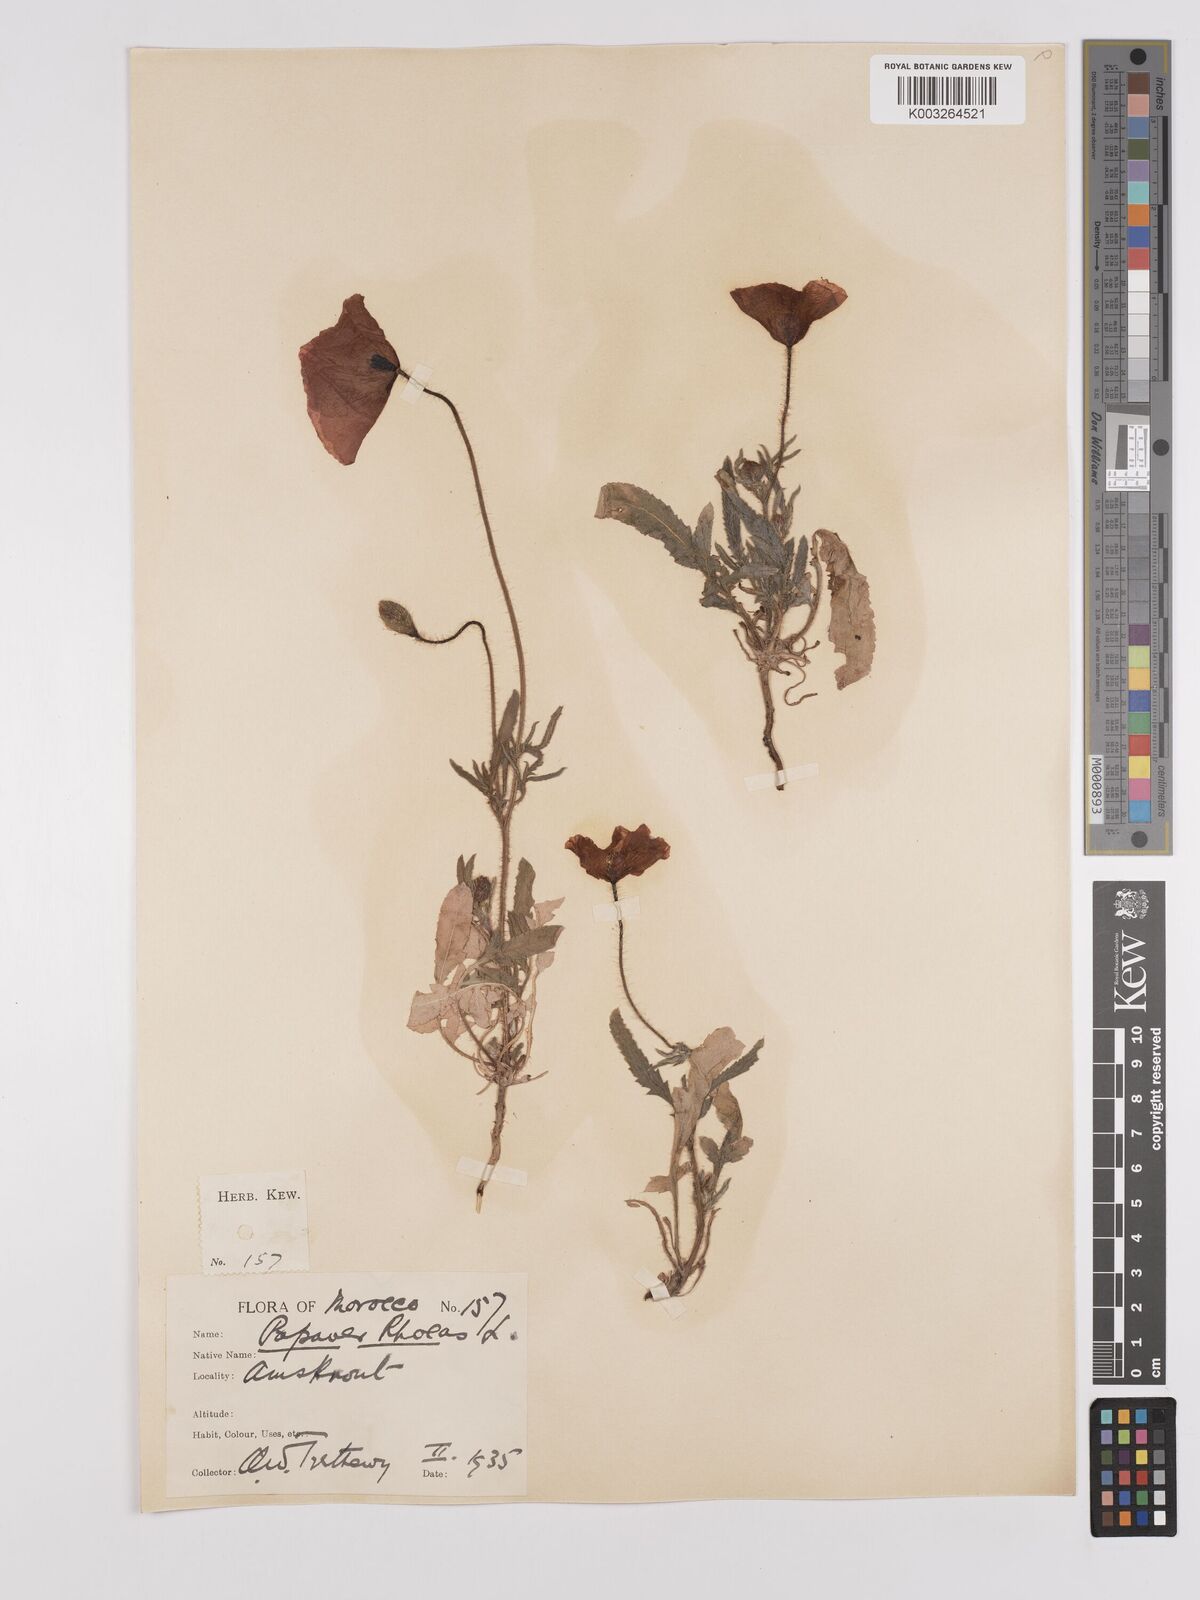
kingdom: Plantae
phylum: Tracheophyta
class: Magnoliopsida
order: Ranunculales
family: Papaveraceae
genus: Papaver
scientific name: Papaver rhoeas
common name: Corn poppy
